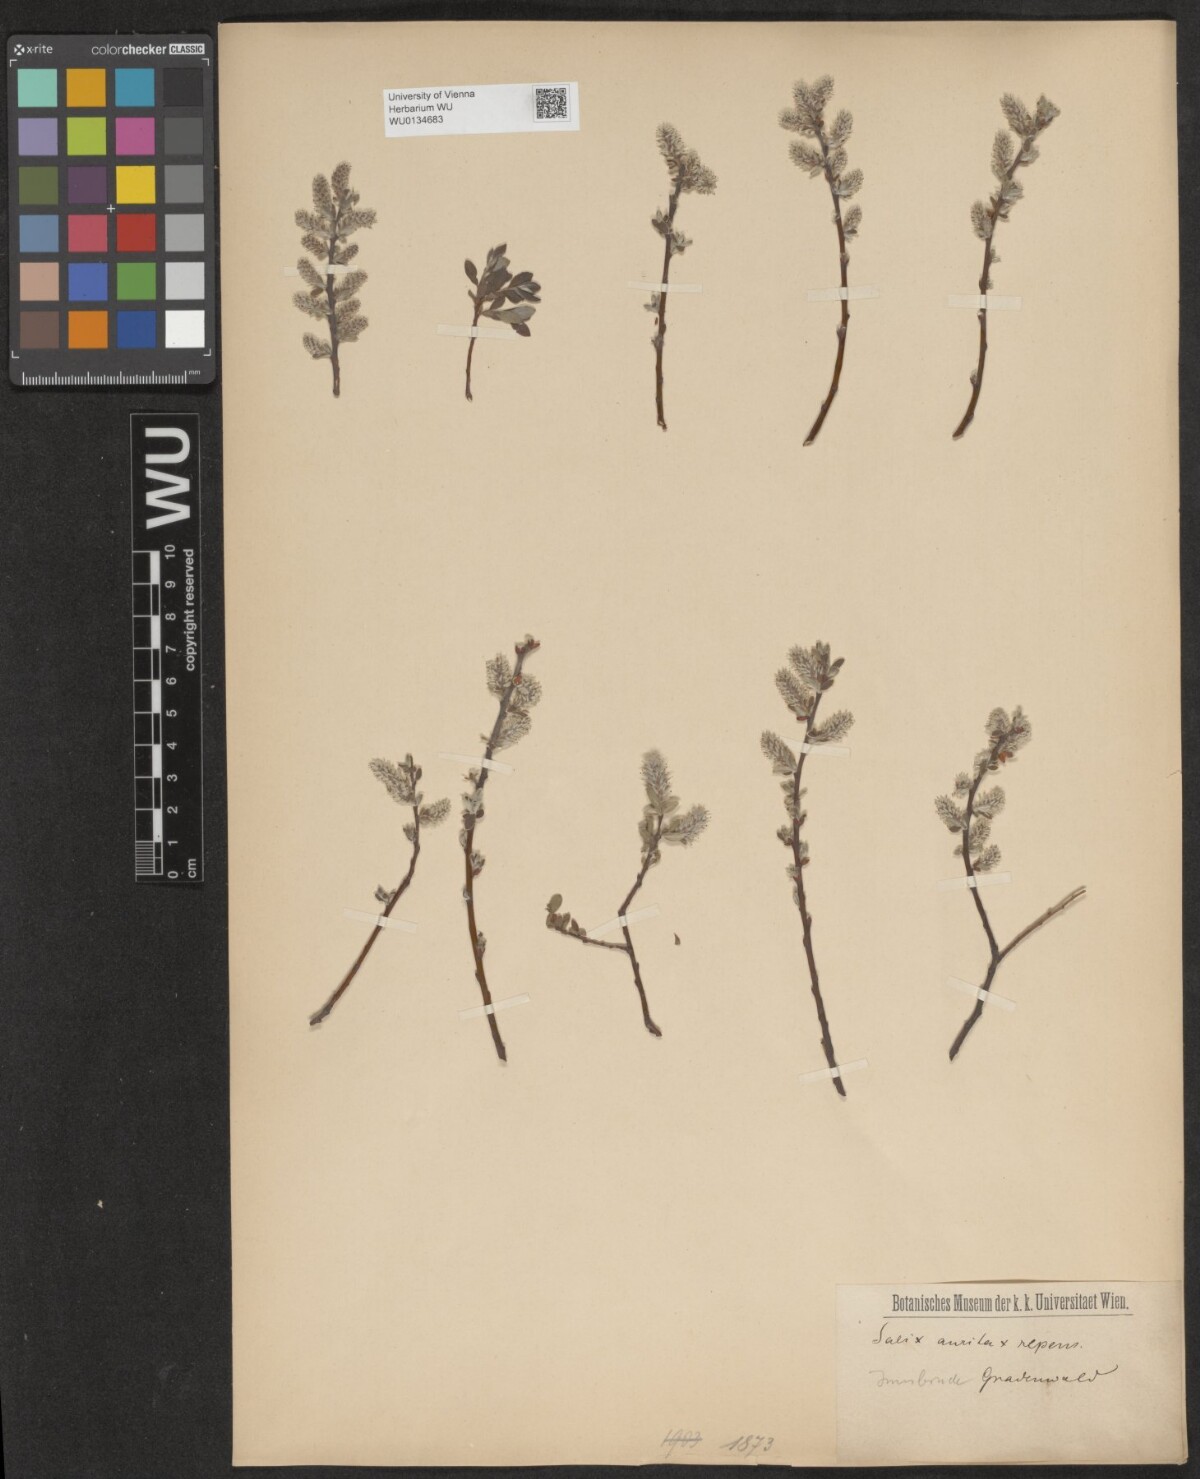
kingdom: Plantae
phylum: Tracheophyta
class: Magnoliopsida
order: Malpighiales
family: Salicaceae
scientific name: Salicaceae
